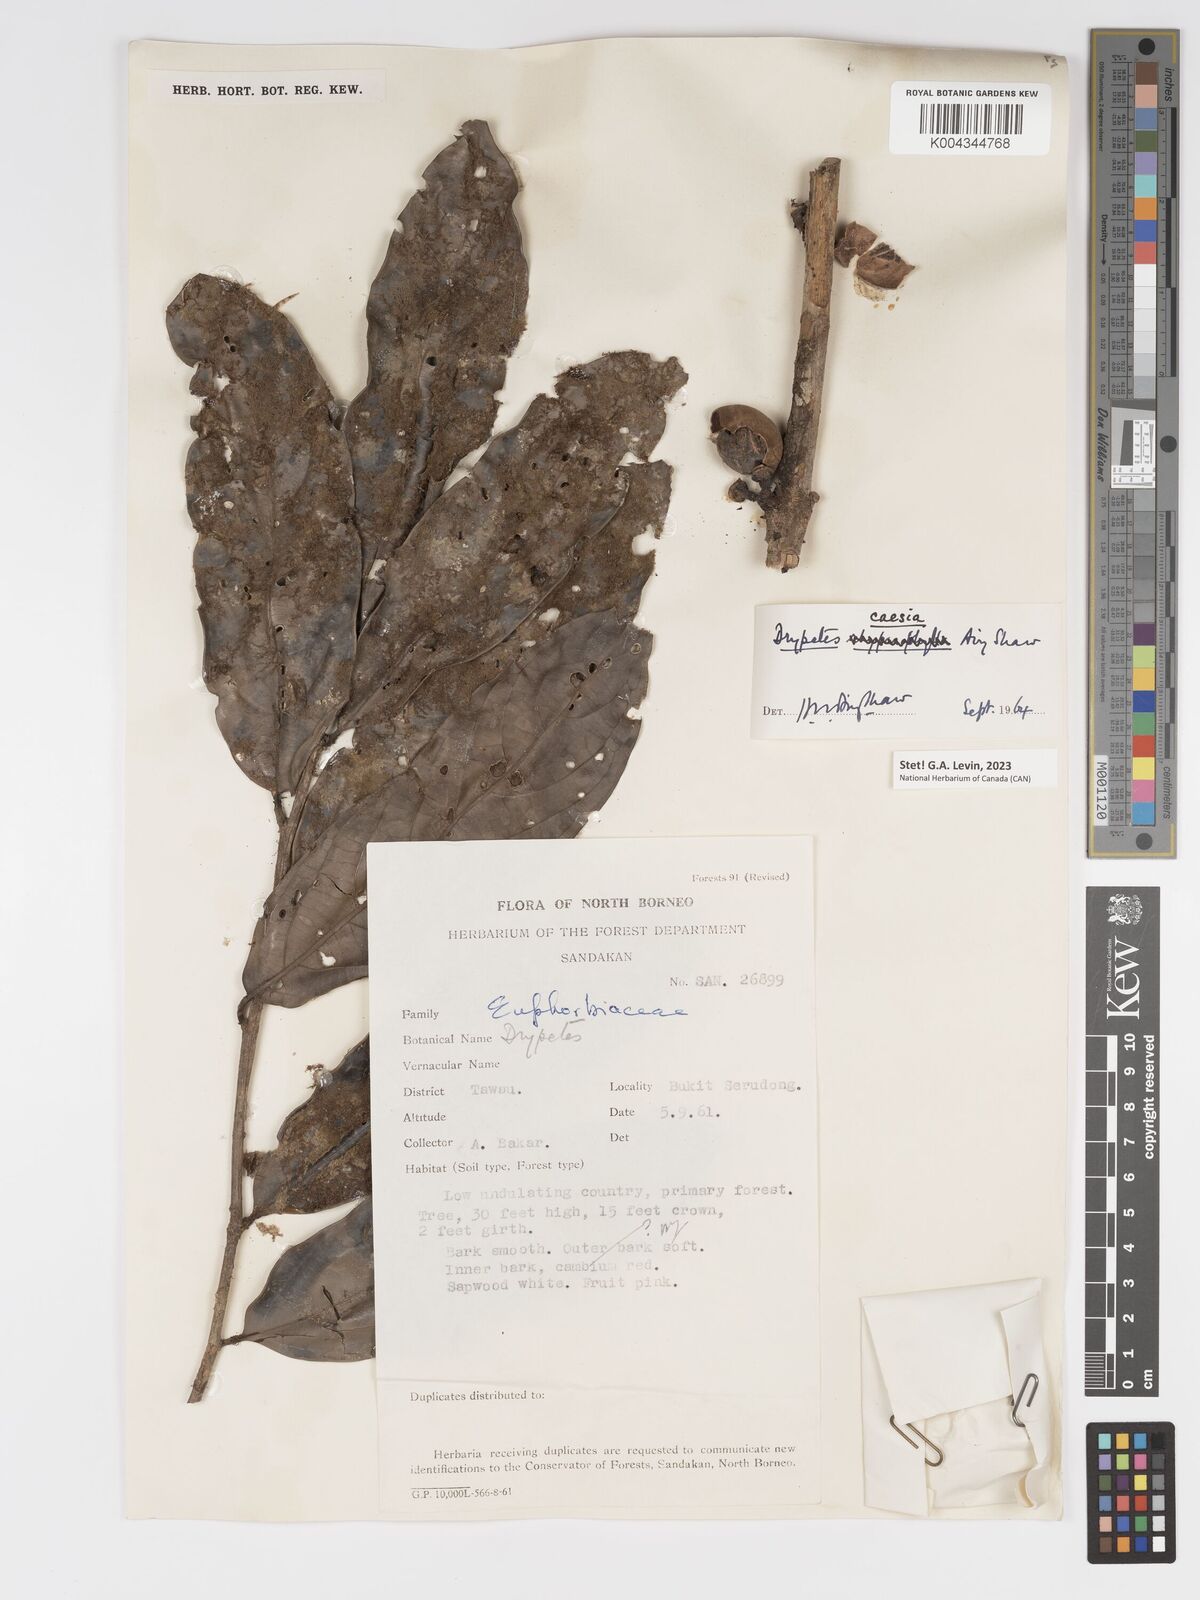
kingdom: Plantae
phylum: Tracheophyta
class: Magnoliopsida
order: Malpighiales
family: Putranjivaceae
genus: Drypetes
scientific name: Drypetes caesia
